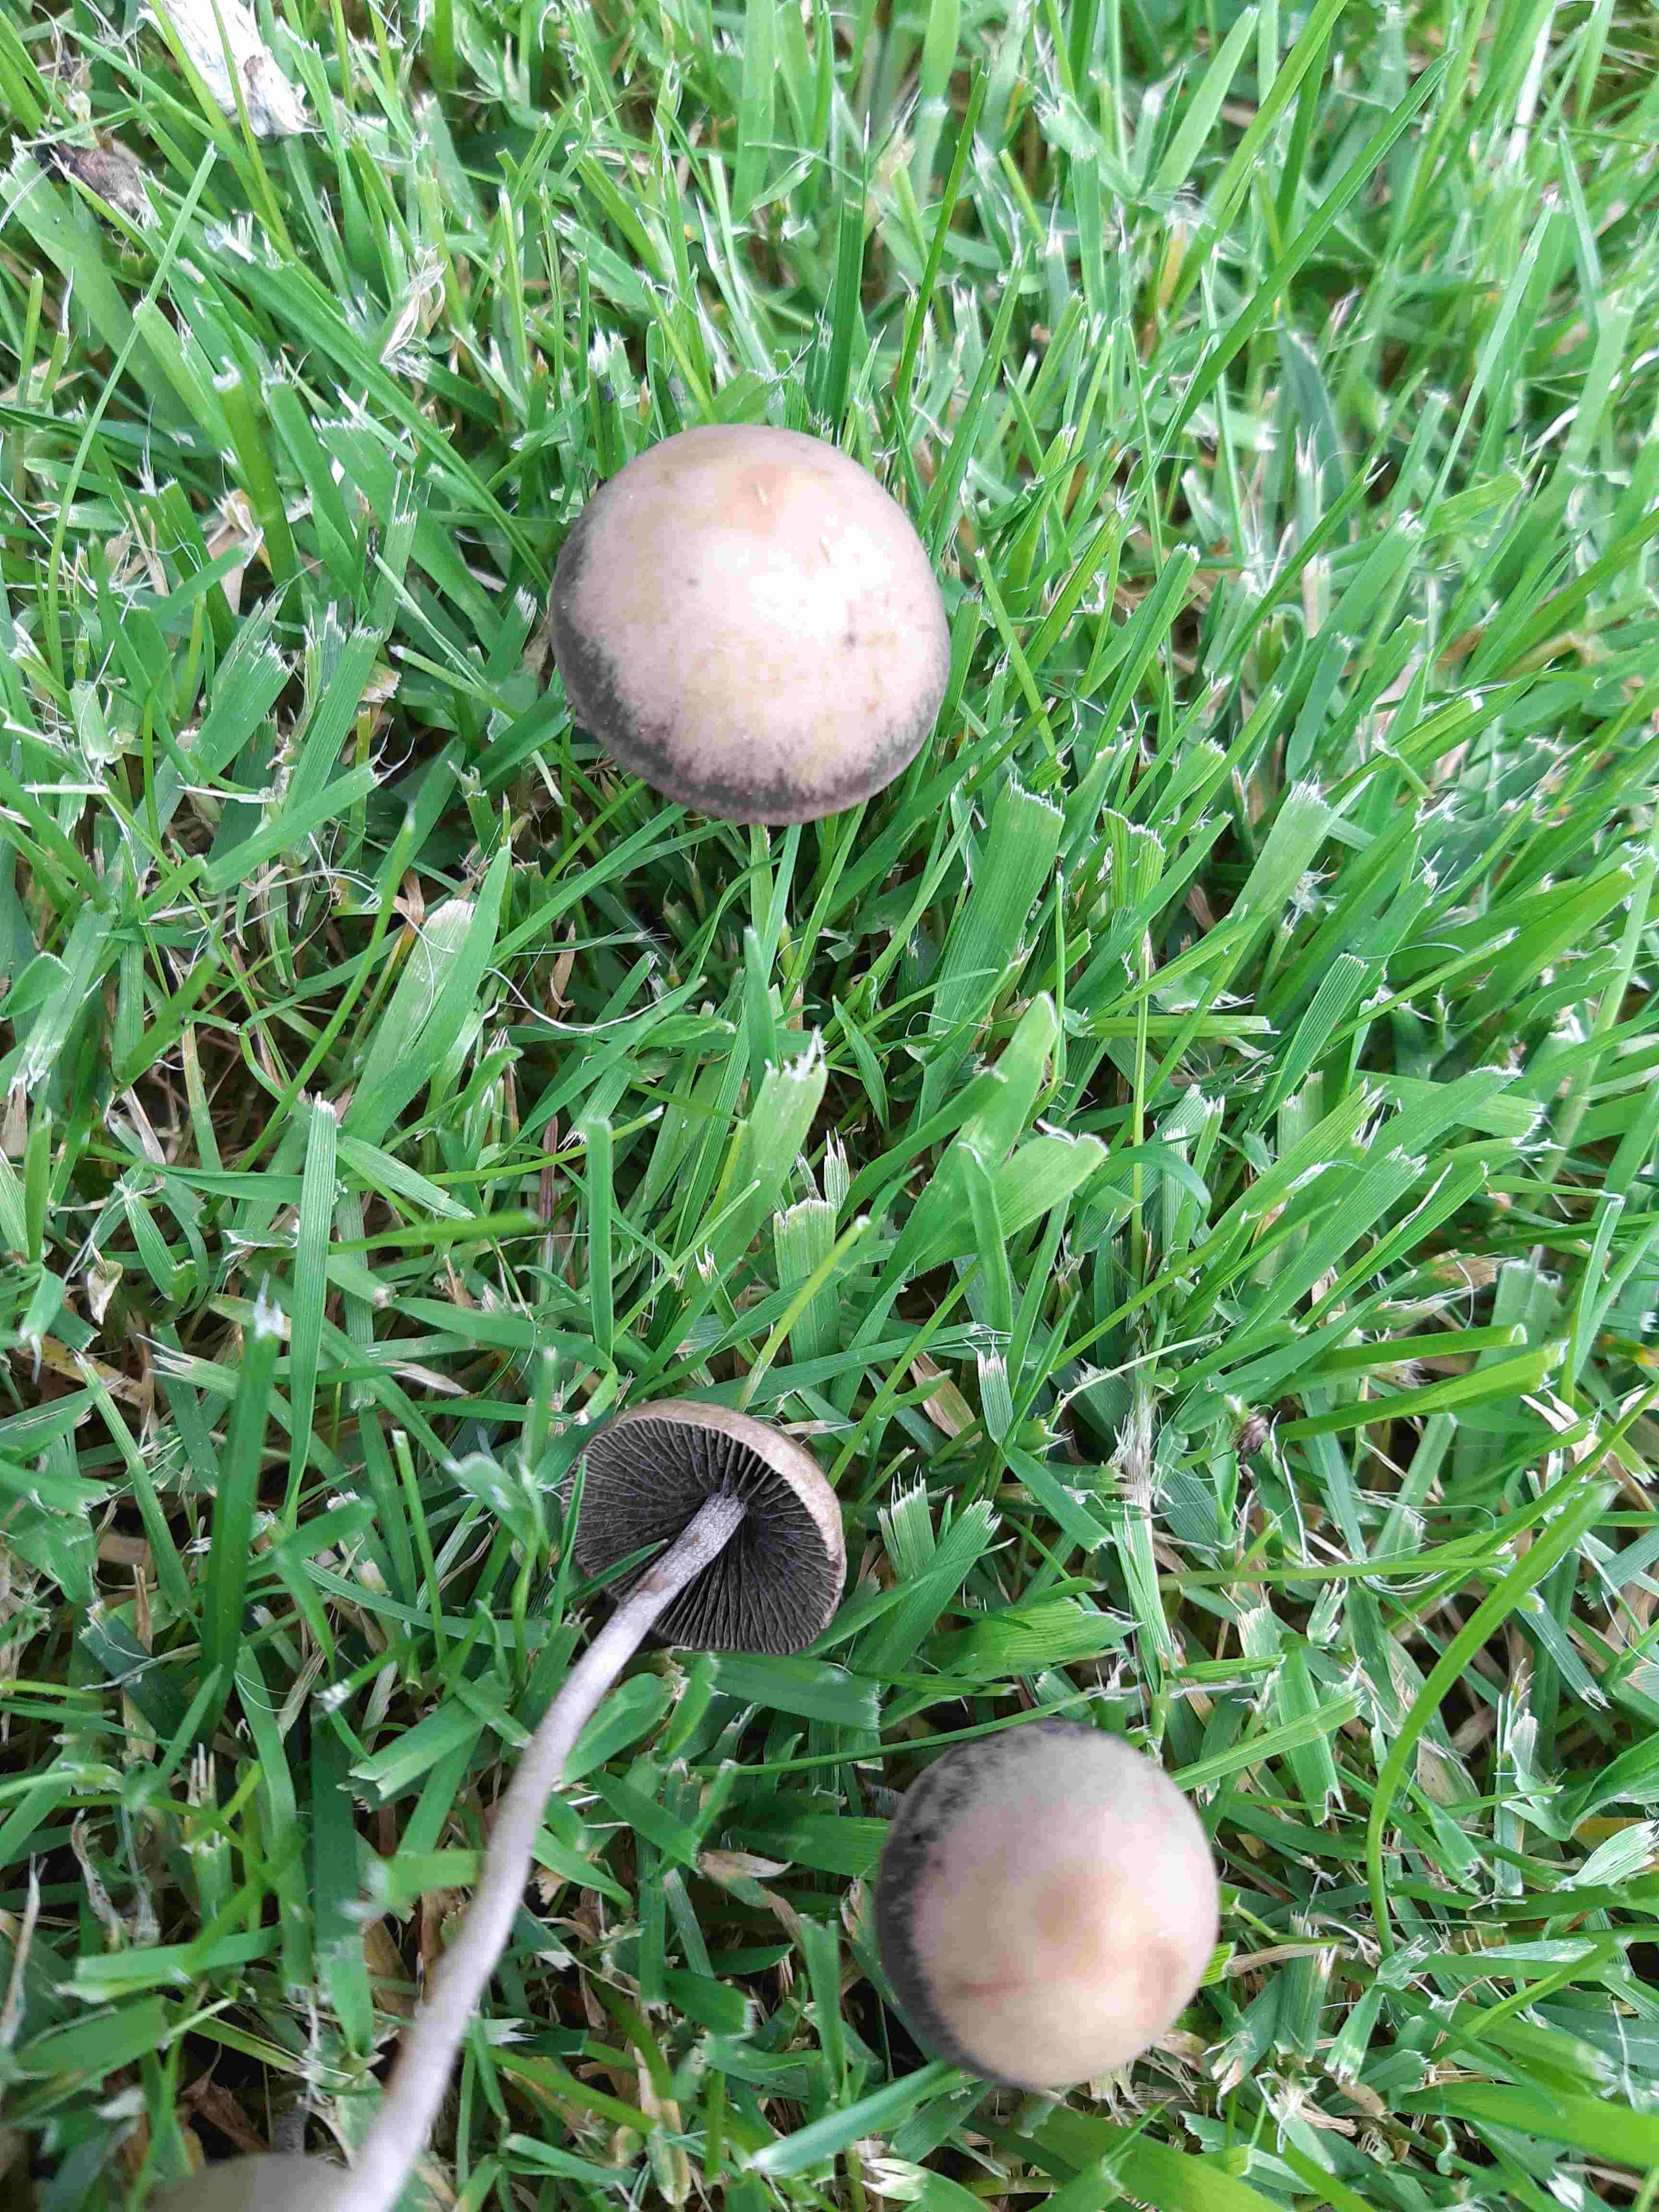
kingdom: Fungi
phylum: Basidiomycota
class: Agaricomycetes
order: Agaricales
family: Bolbitiaceae
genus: Panaeolina
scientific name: Panaeolina foenisecii
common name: høslætsvamp
